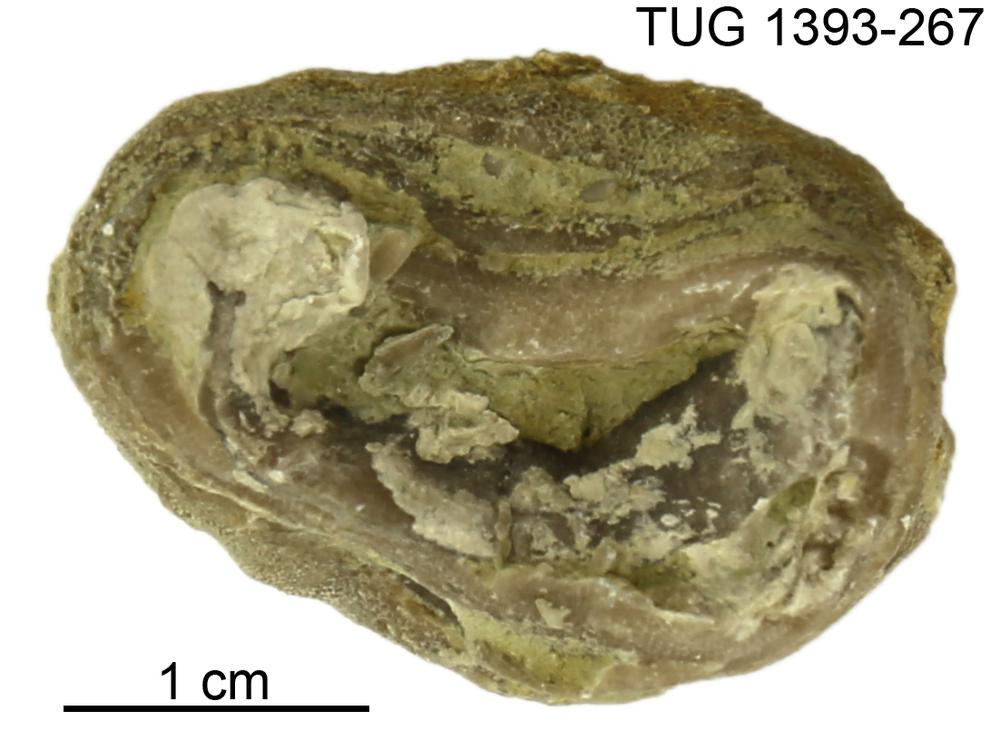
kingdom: Animalia
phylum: Bryozoa
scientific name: Bryozoa
